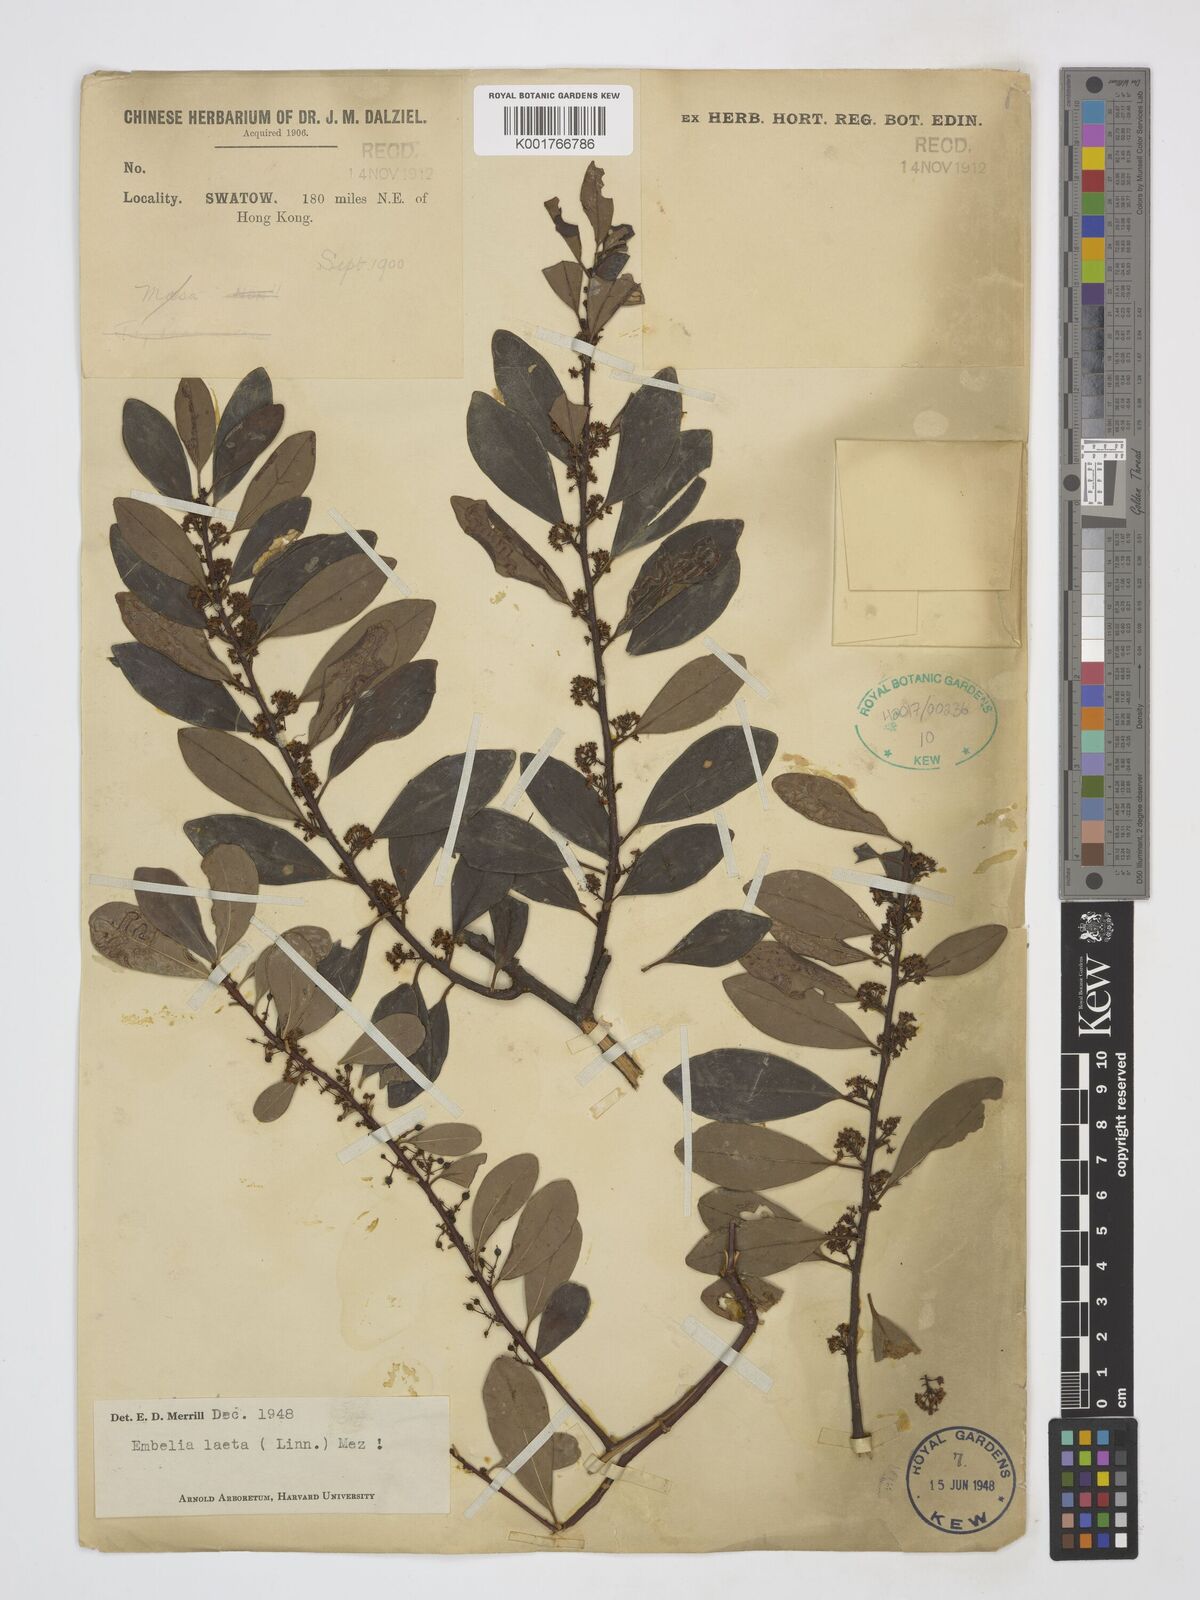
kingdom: Plantae
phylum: Tracheophyta
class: Magnoliopsida
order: Ericales
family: Primulaceae
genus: Embelia
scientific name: Embelia laeta
